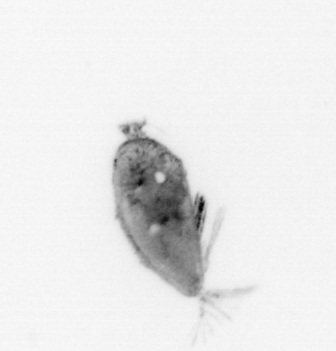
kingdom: Animalia
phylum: Arthropoda
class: Maxillopoda
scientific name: Maxillopoda
